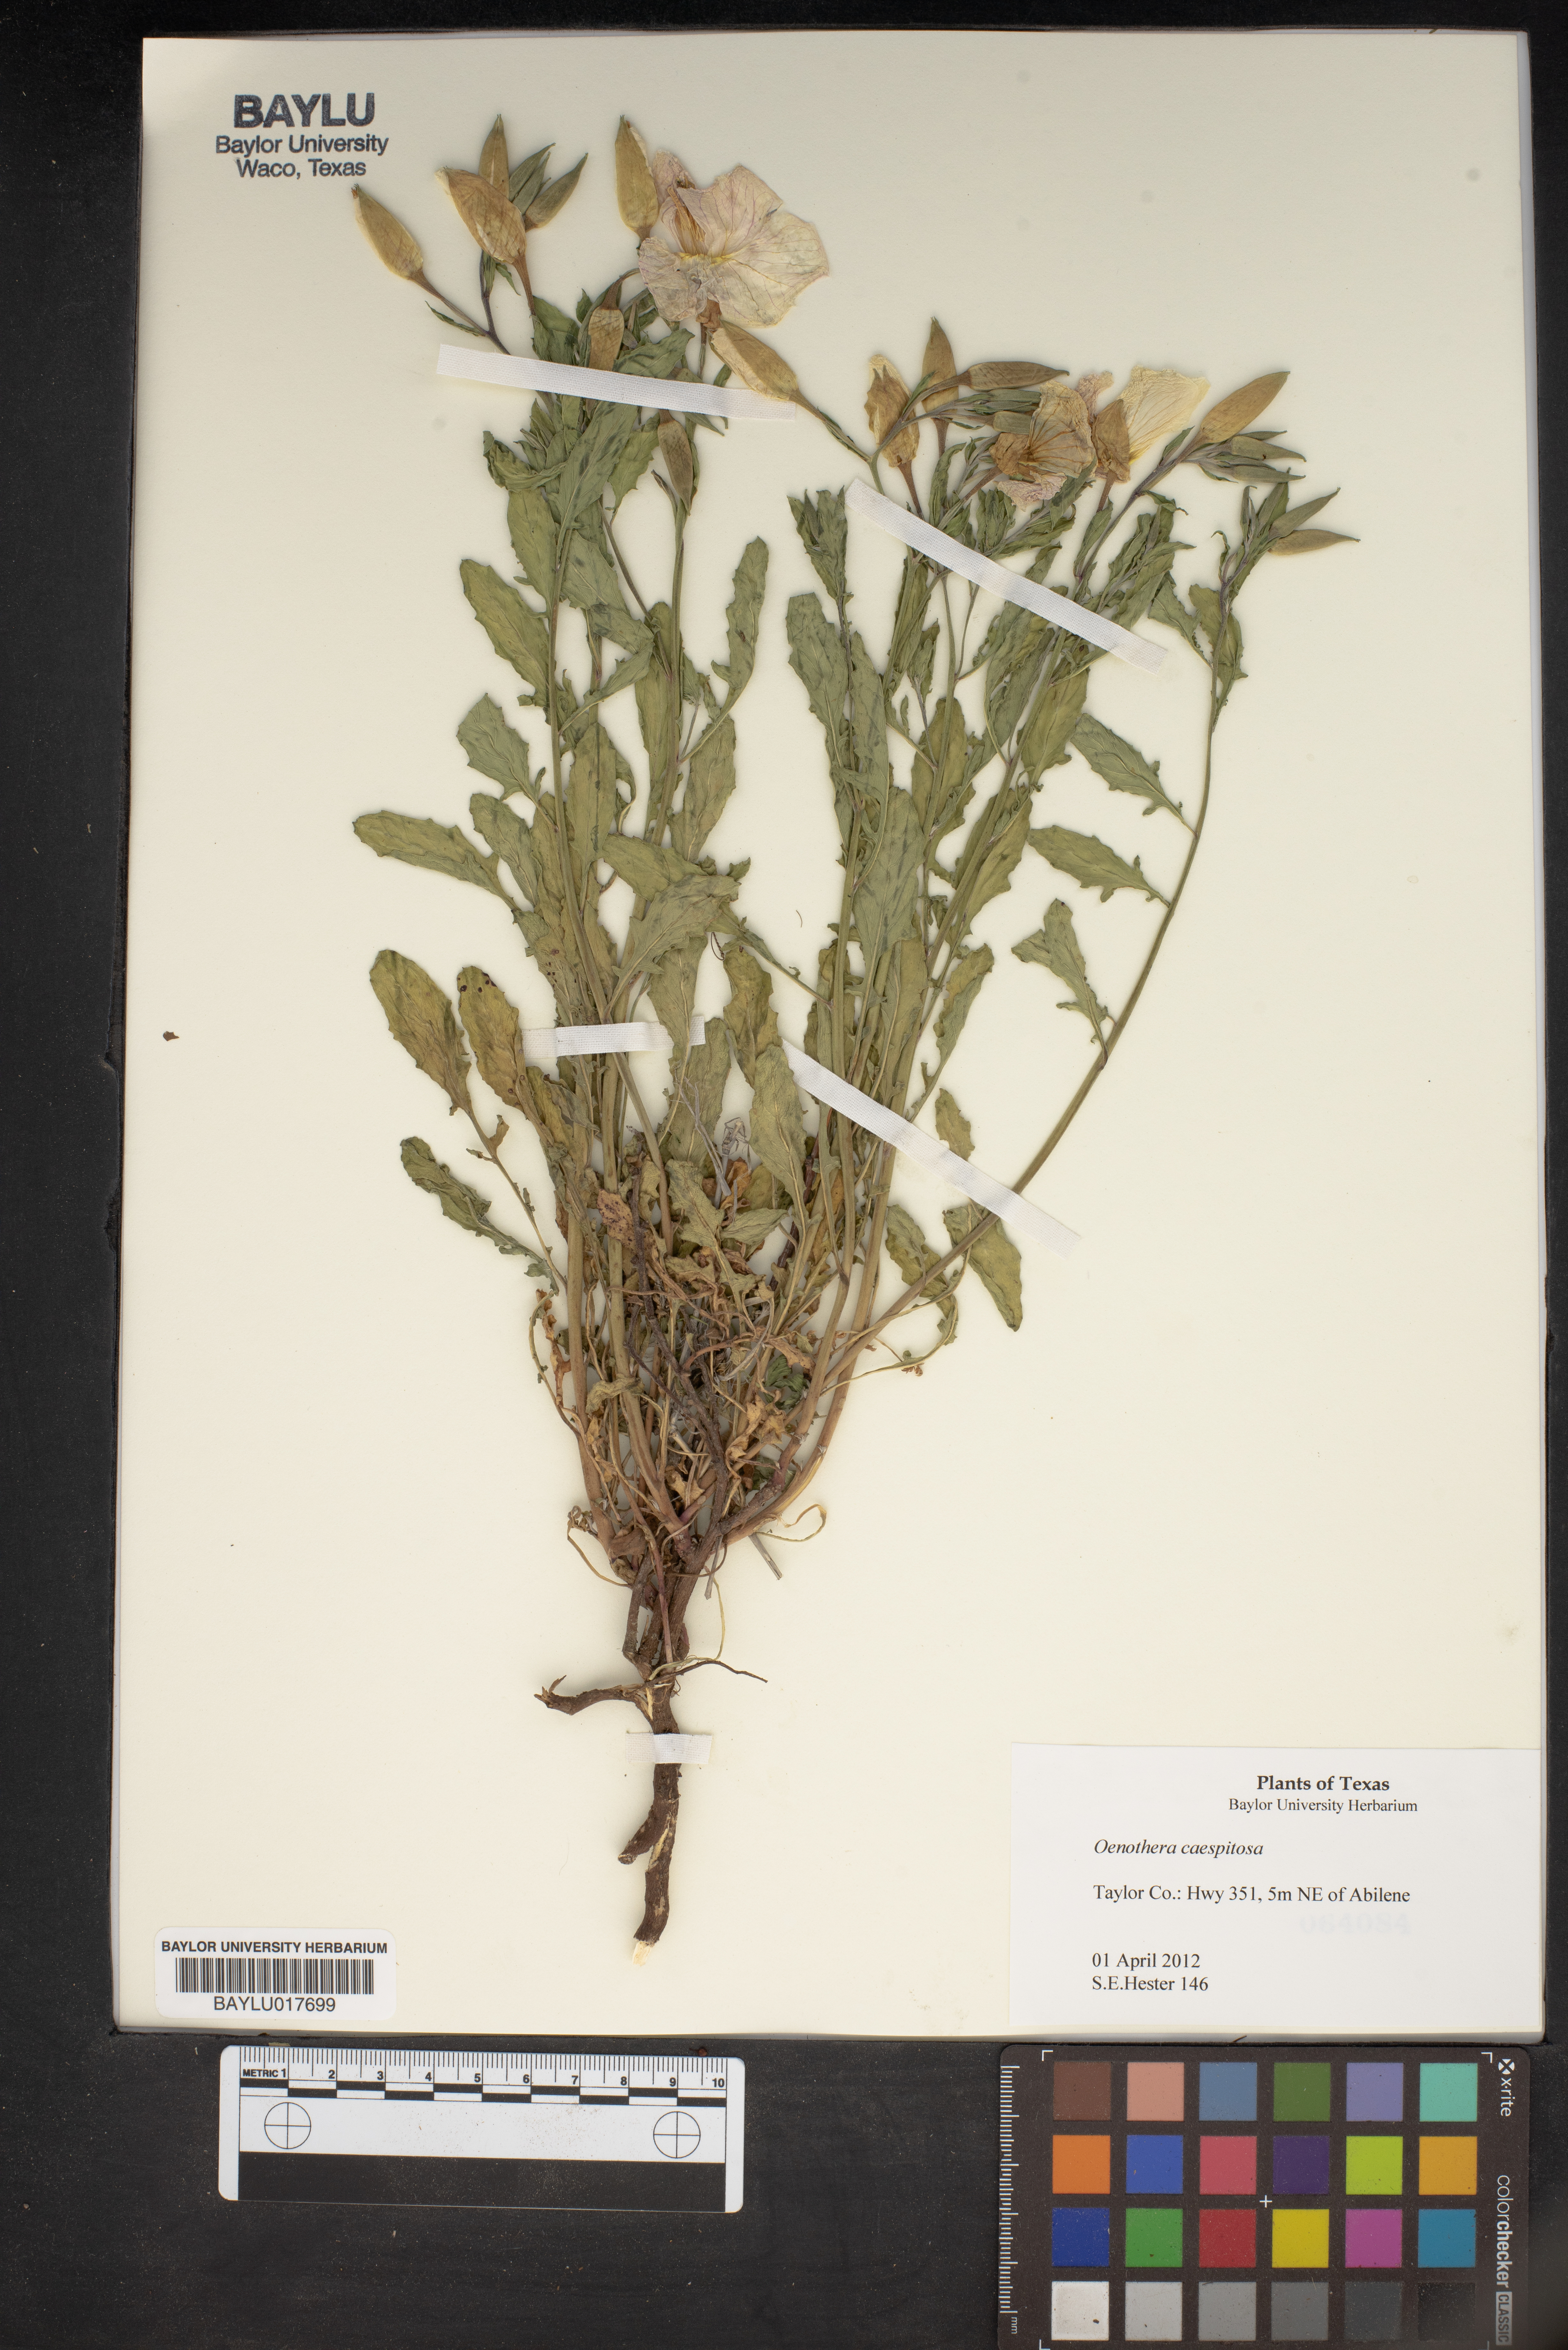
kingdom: Plantae
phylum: Tracheophyta
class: Magnoliopsida
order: Myrtales
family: Onagraceae
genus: Oenothera
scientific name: Oenothera cespitosa
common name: Tufted evening-primrose
